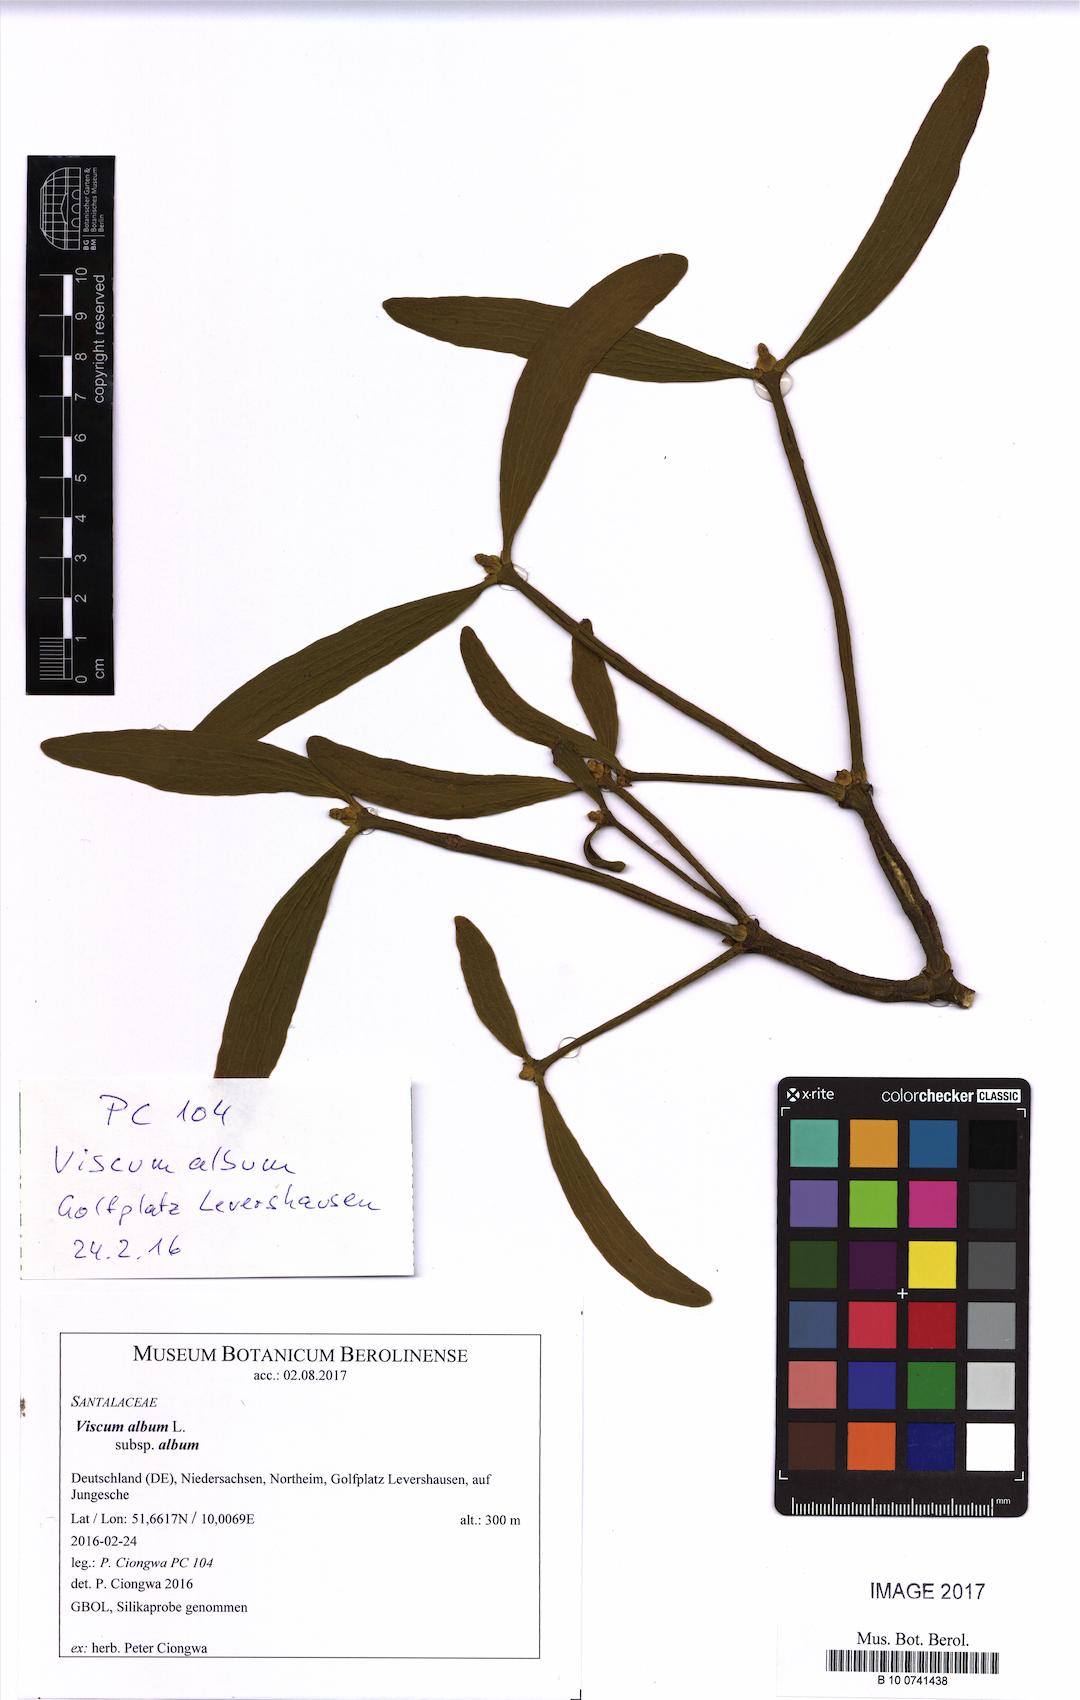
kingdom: Plantae
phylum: Tracheophyta
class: Magnoliopsida
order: Santalales
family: Viscaceae
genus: Viscum
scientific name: Viscum album
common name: Mistletoe
